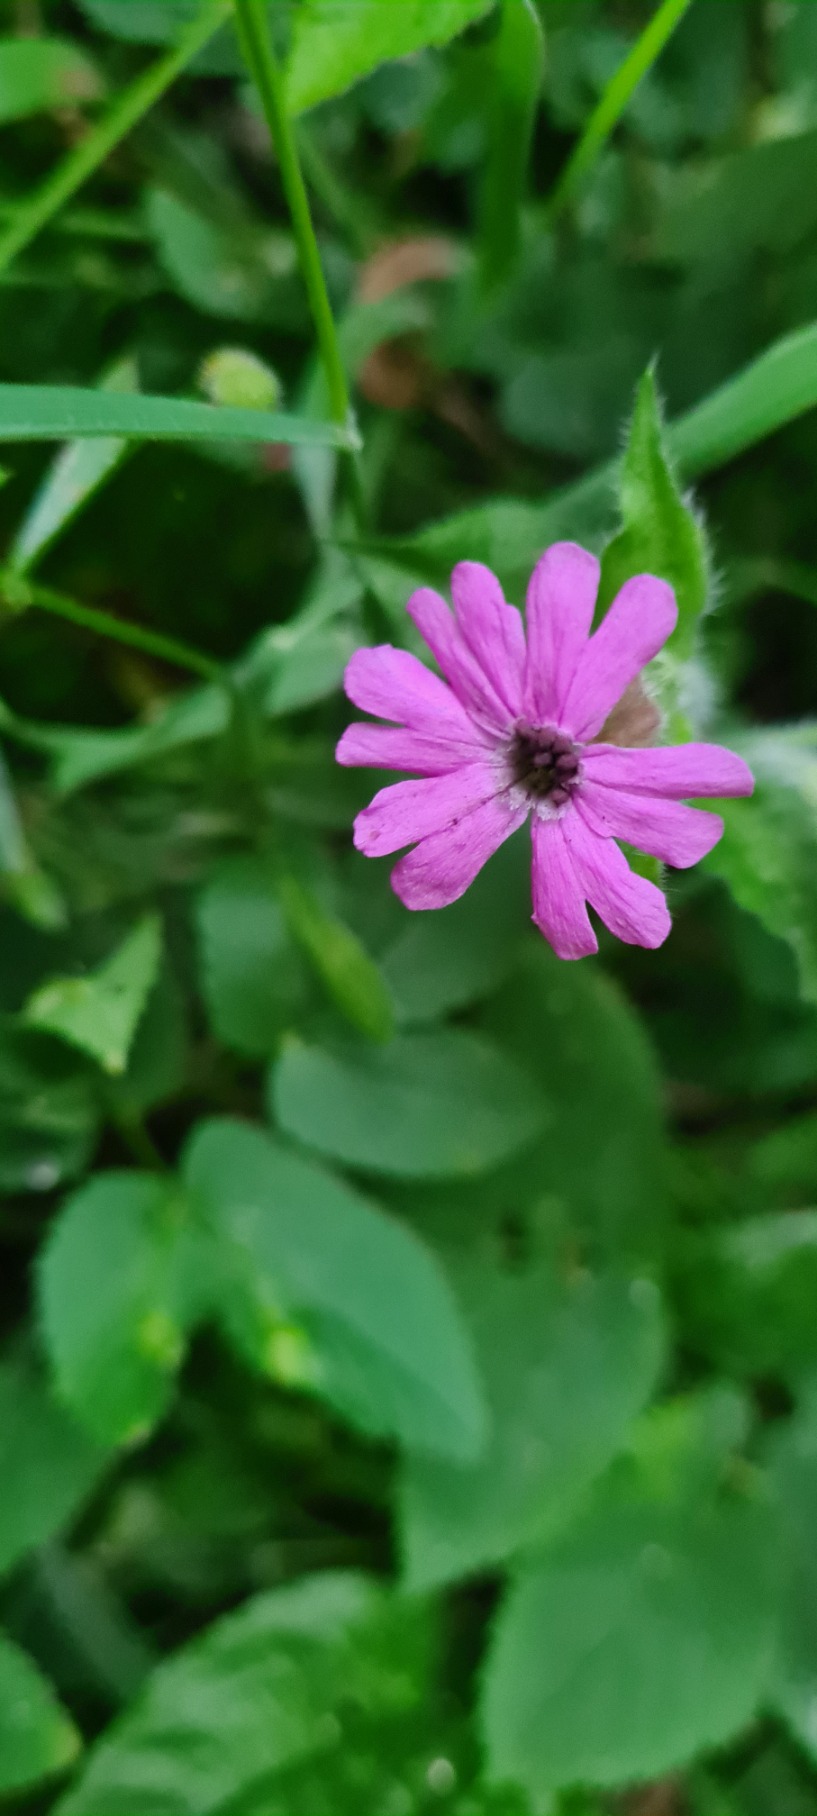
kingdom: Plantae
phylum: Tracheophyta
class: Magnoliopsida
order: Caryophyllales
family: Caryophyllaceae
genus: Silene
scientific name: Silene dioica
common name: Dagpragtstjerne
